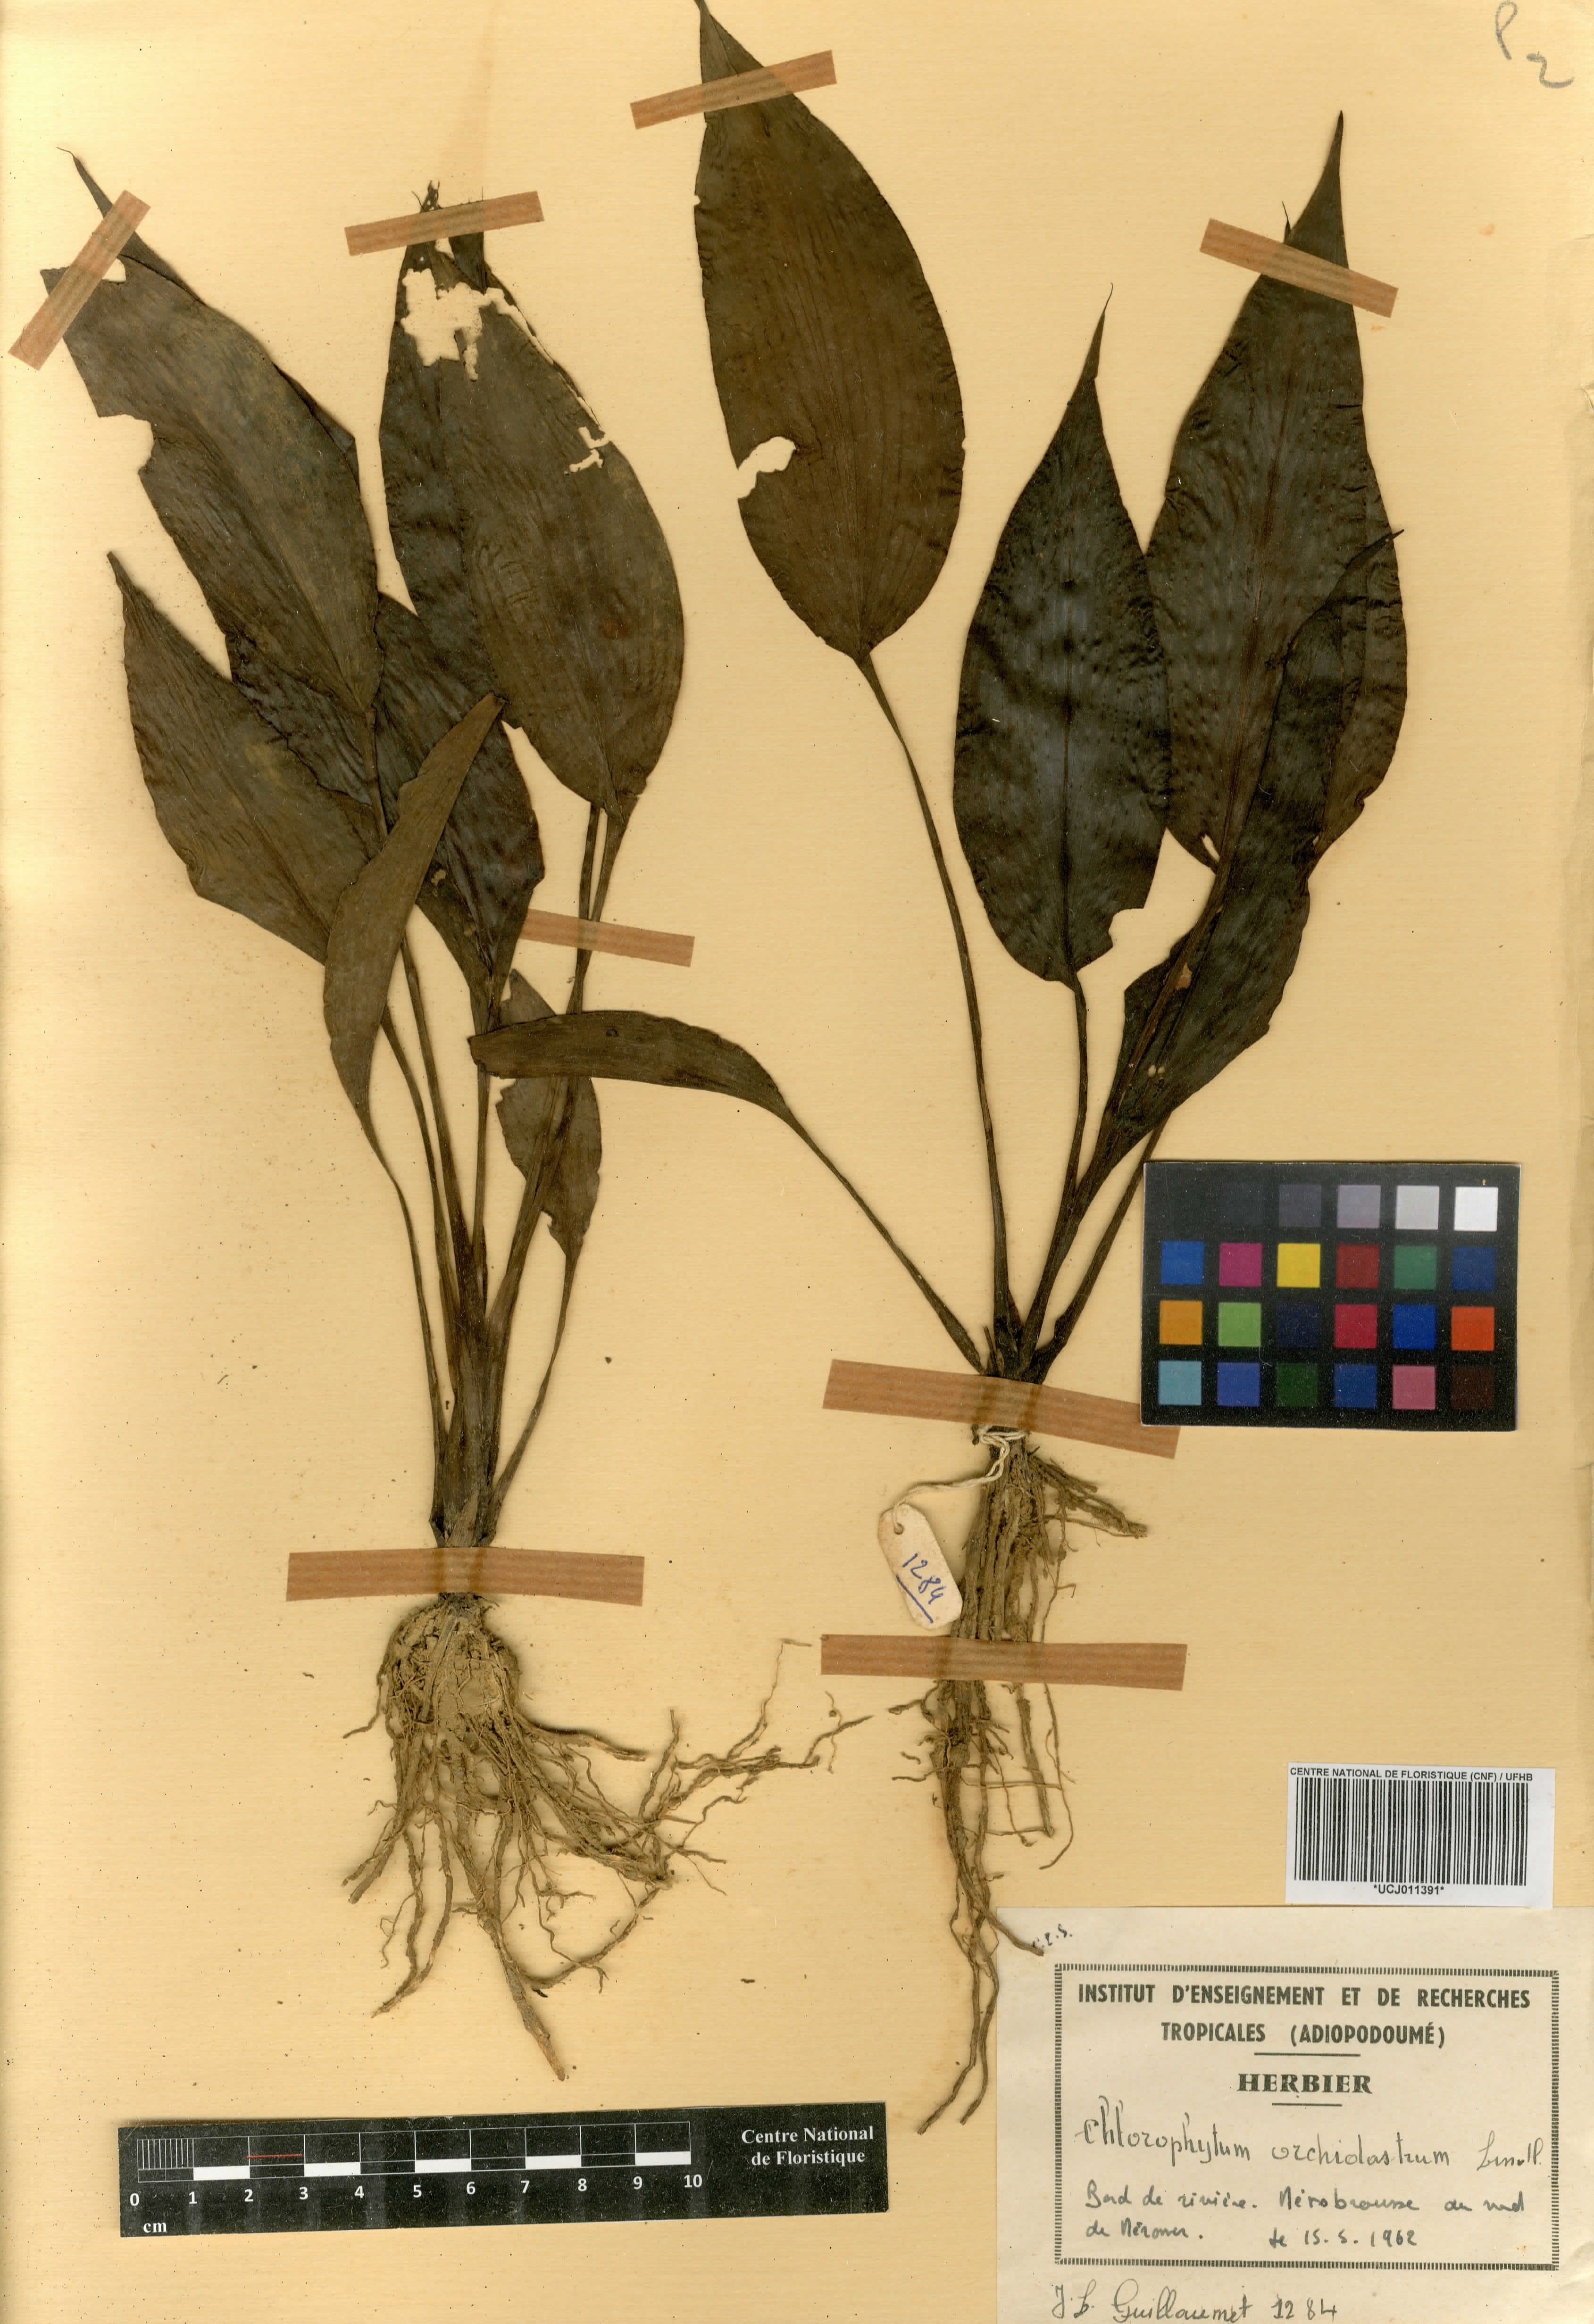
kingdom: Plantae
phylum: Tracheophyta
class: Liliopsida
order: Asparagales
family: Asparagaceae
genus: Chlorophytum
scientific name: Chlorophytum orchidastrum
